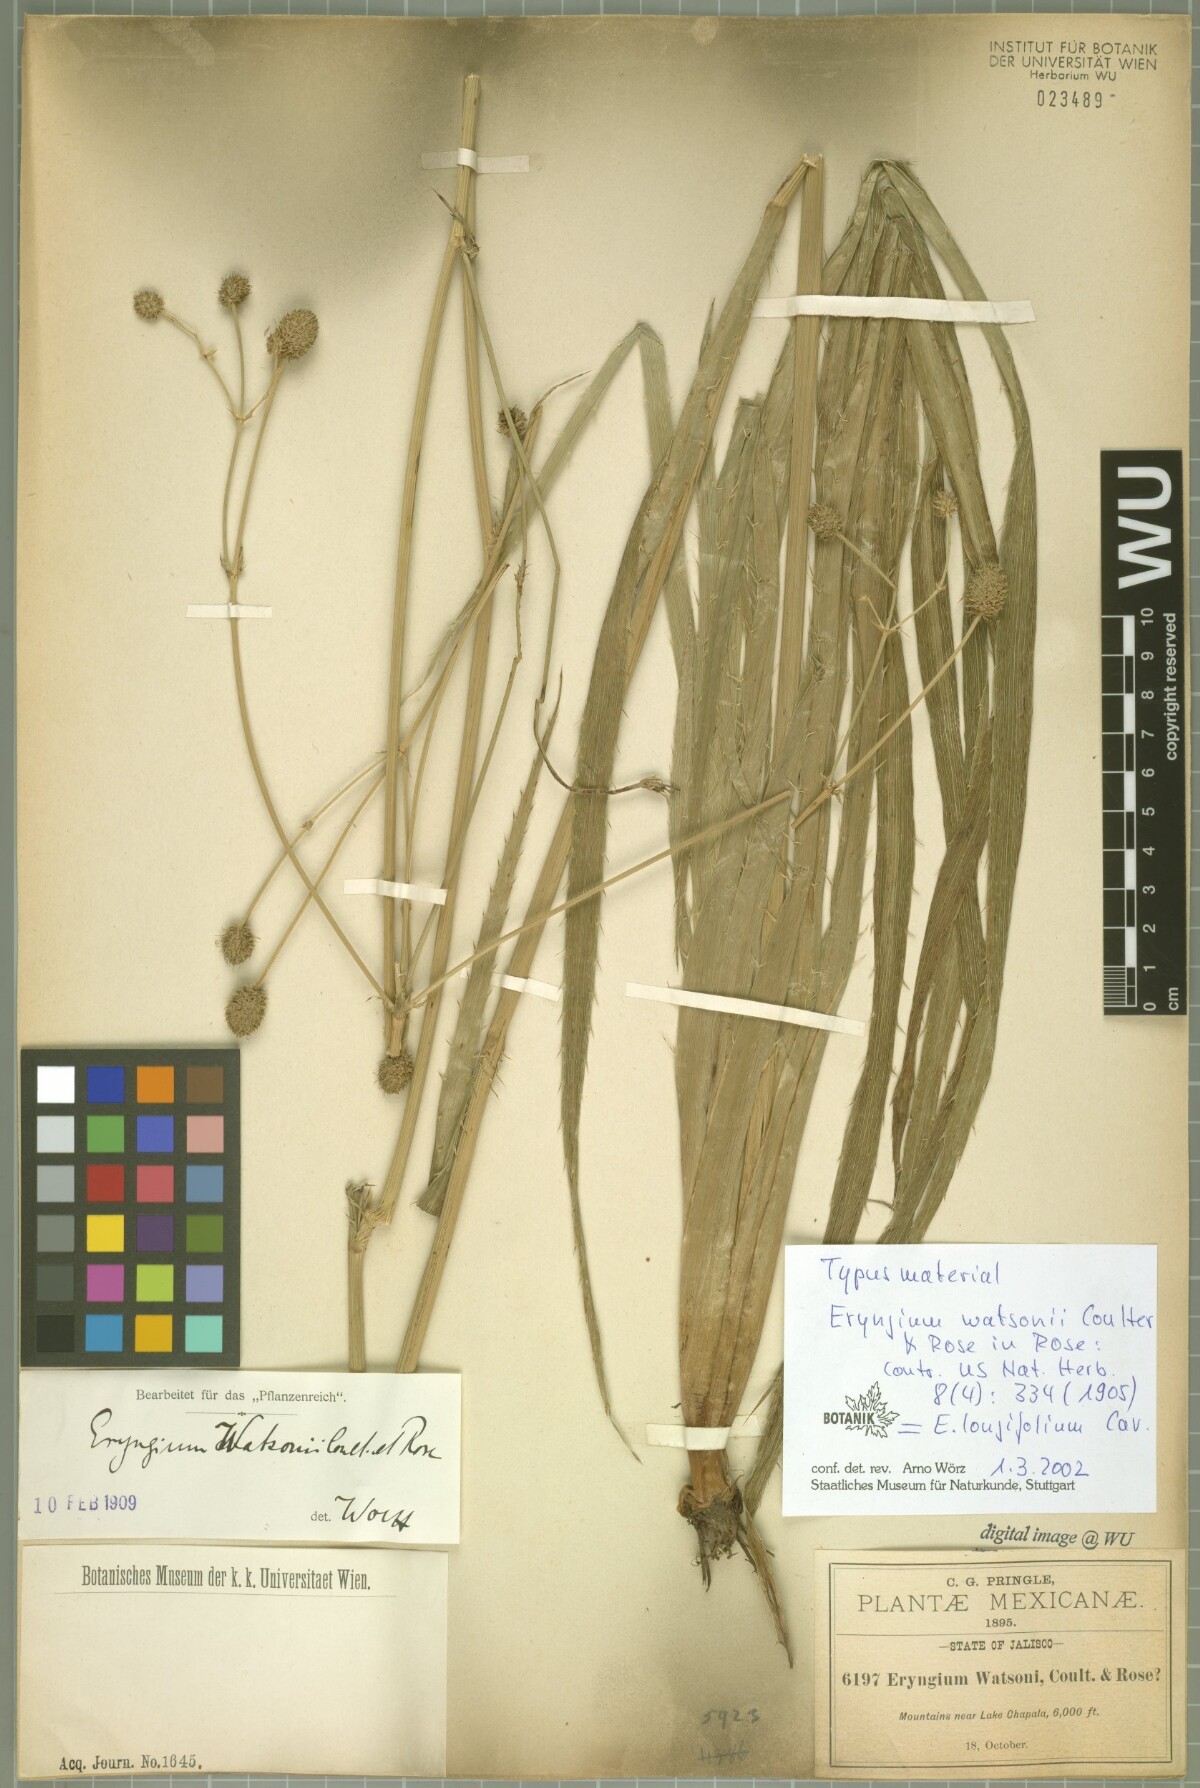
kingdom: Plantae
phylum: Tracheophyta
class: Magnoliopsida
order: Apiales
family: Apiaceae
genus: Eryngium
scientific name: Eryngium longifolium
